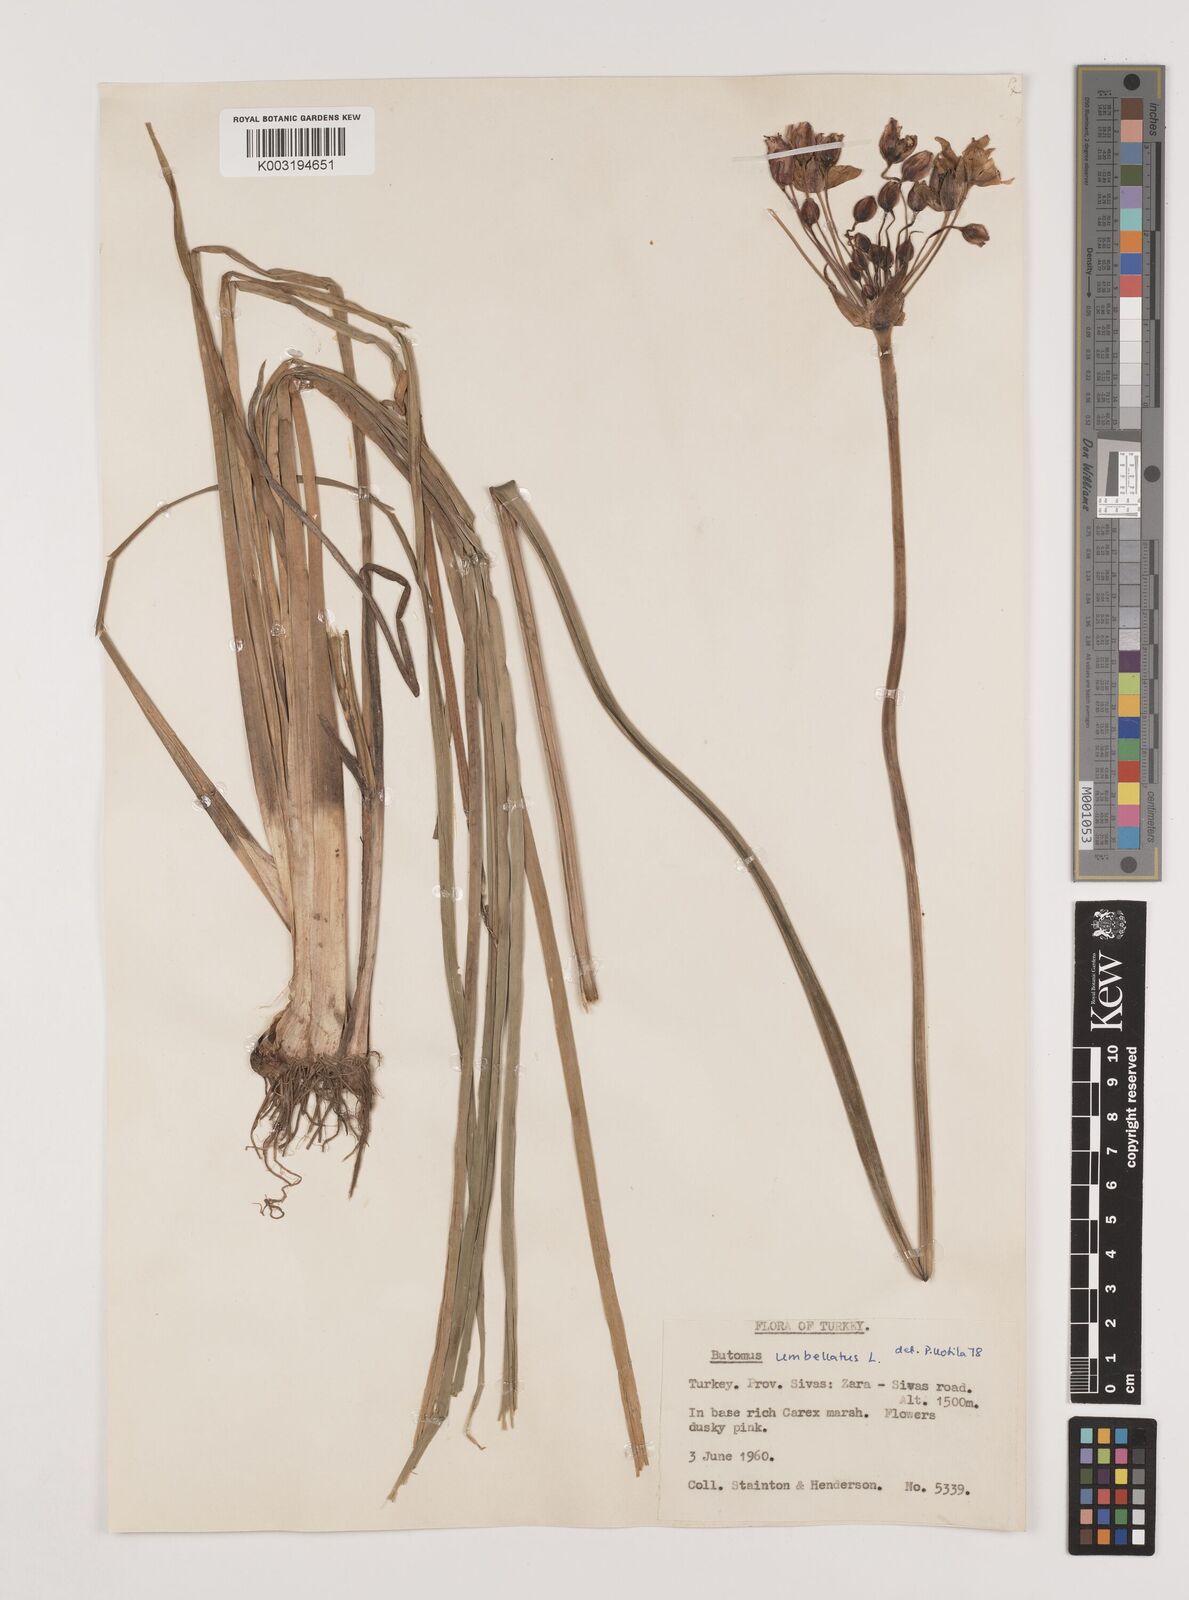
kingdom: Plantae
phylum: Tracheophyta
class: Liliopsida
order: Alismatales
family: Butomaceae
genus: Butomus
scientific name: Butomus
